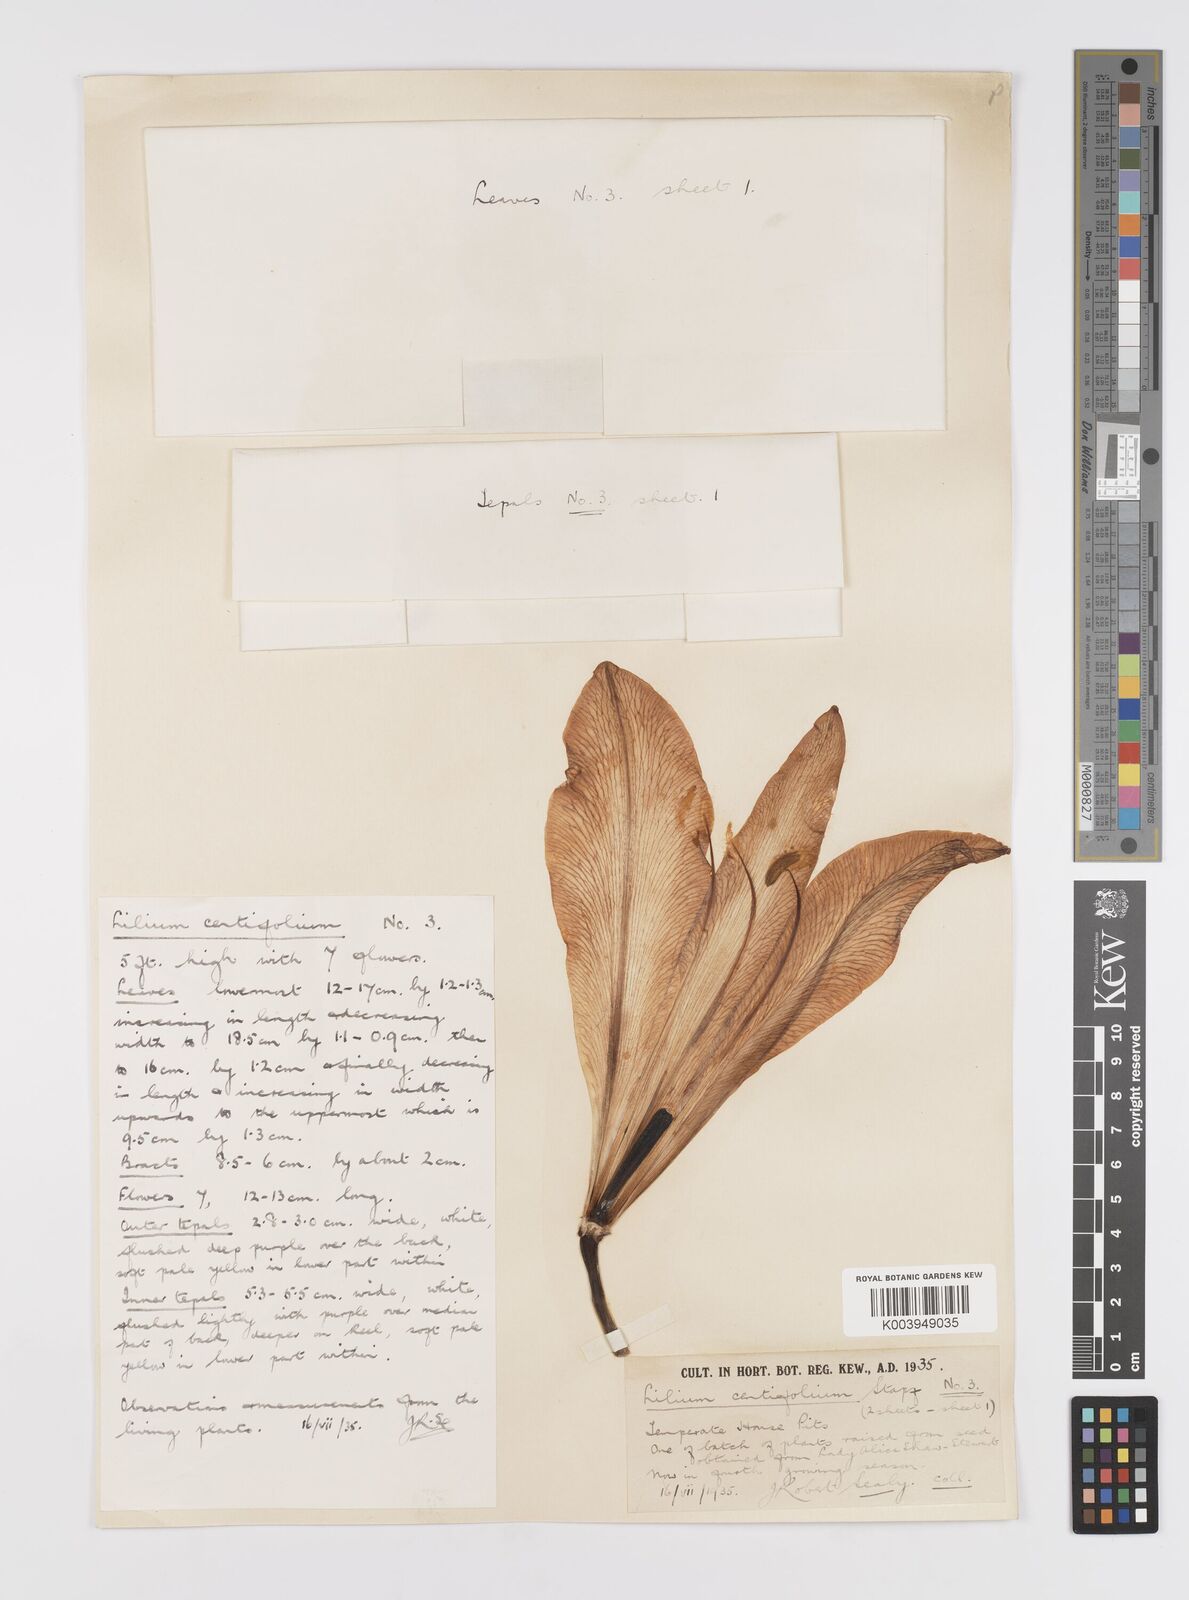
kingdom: Plantae
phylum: Tracheophyta
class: Liliopsida
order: Liliales
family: Liliaceae
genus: Lilium
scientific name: Lilium sargentiae
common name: Sargent lily
